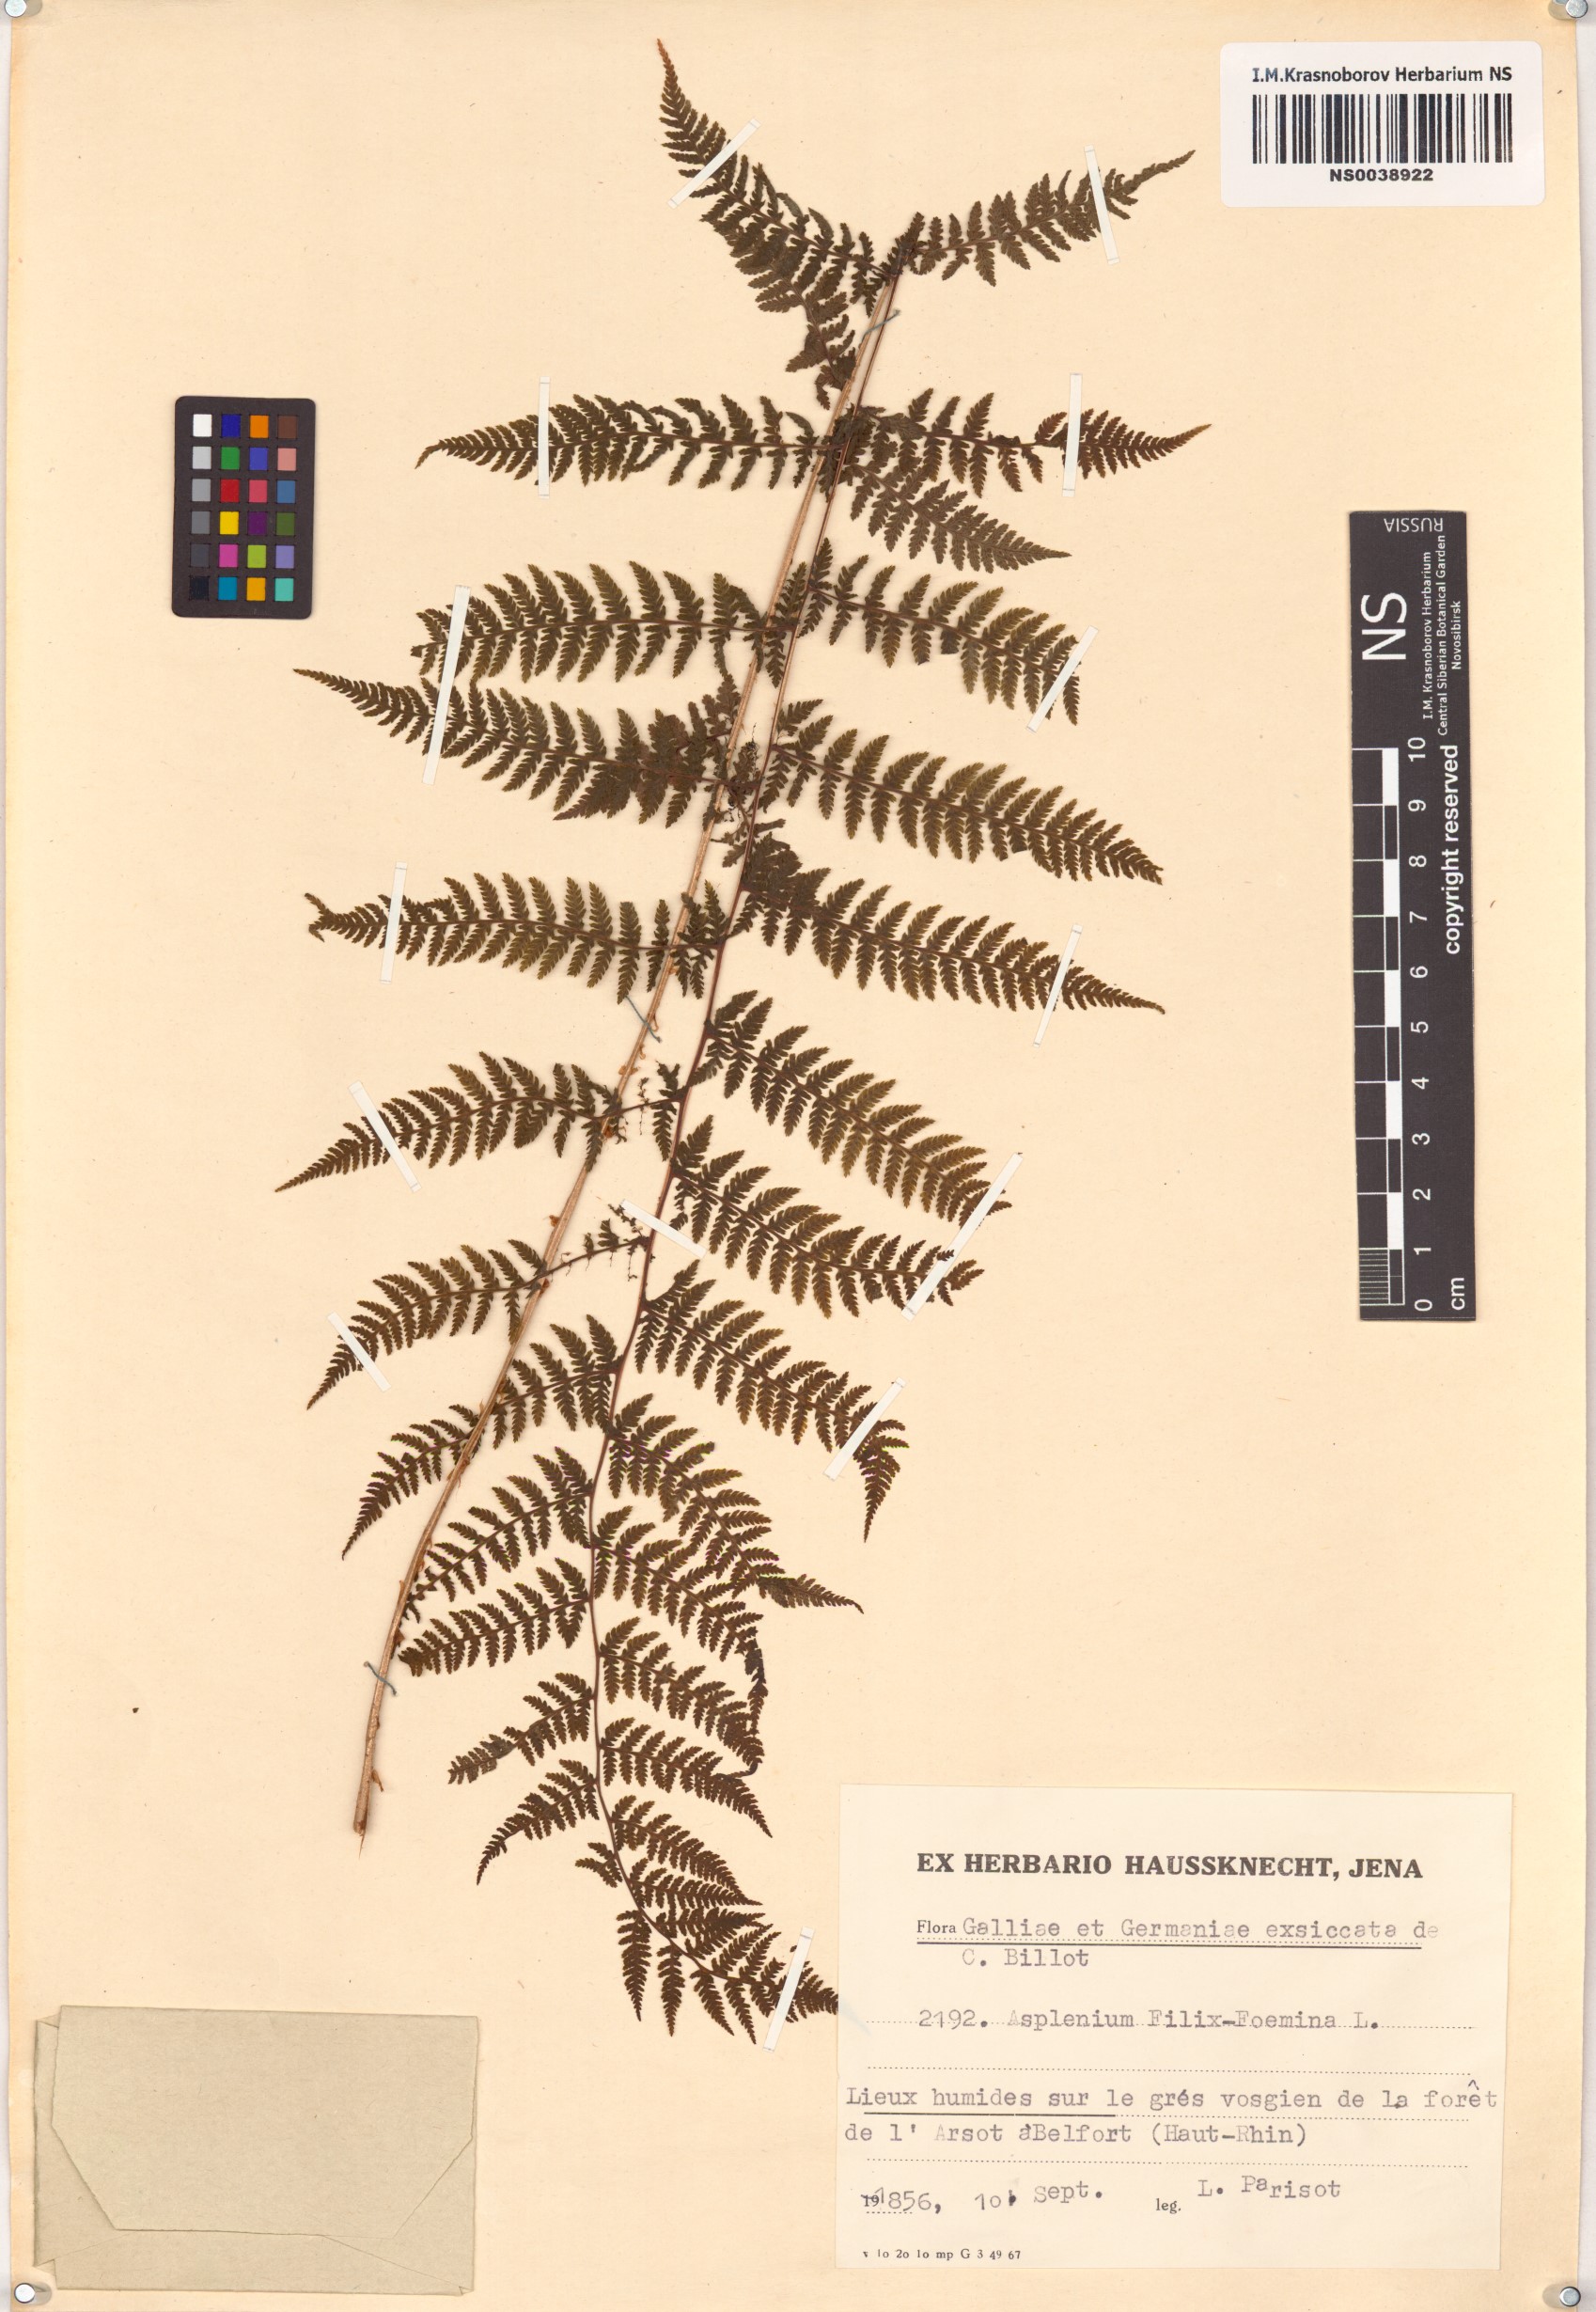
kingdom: Plantae
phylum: Tracheophyta
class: Polypodiopsida
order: Polypodiales
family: Athyriaceae
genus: Athyrium
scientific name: Athyrium filix-femina
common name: Lady fern
